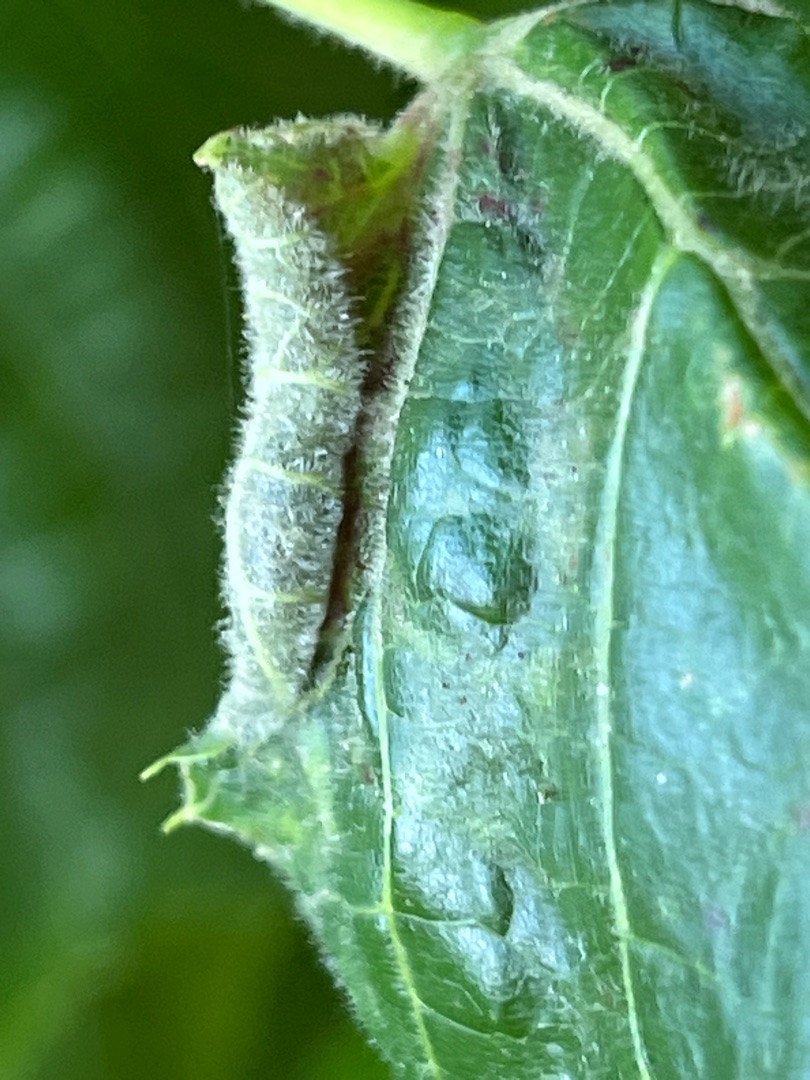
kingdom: Animalia
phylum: Arthropoda
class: Insecta
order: Diptera
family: Cecidomyiidae
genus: Dasineura
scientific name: Dasineura tiliae
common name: Linderullegalmyg
